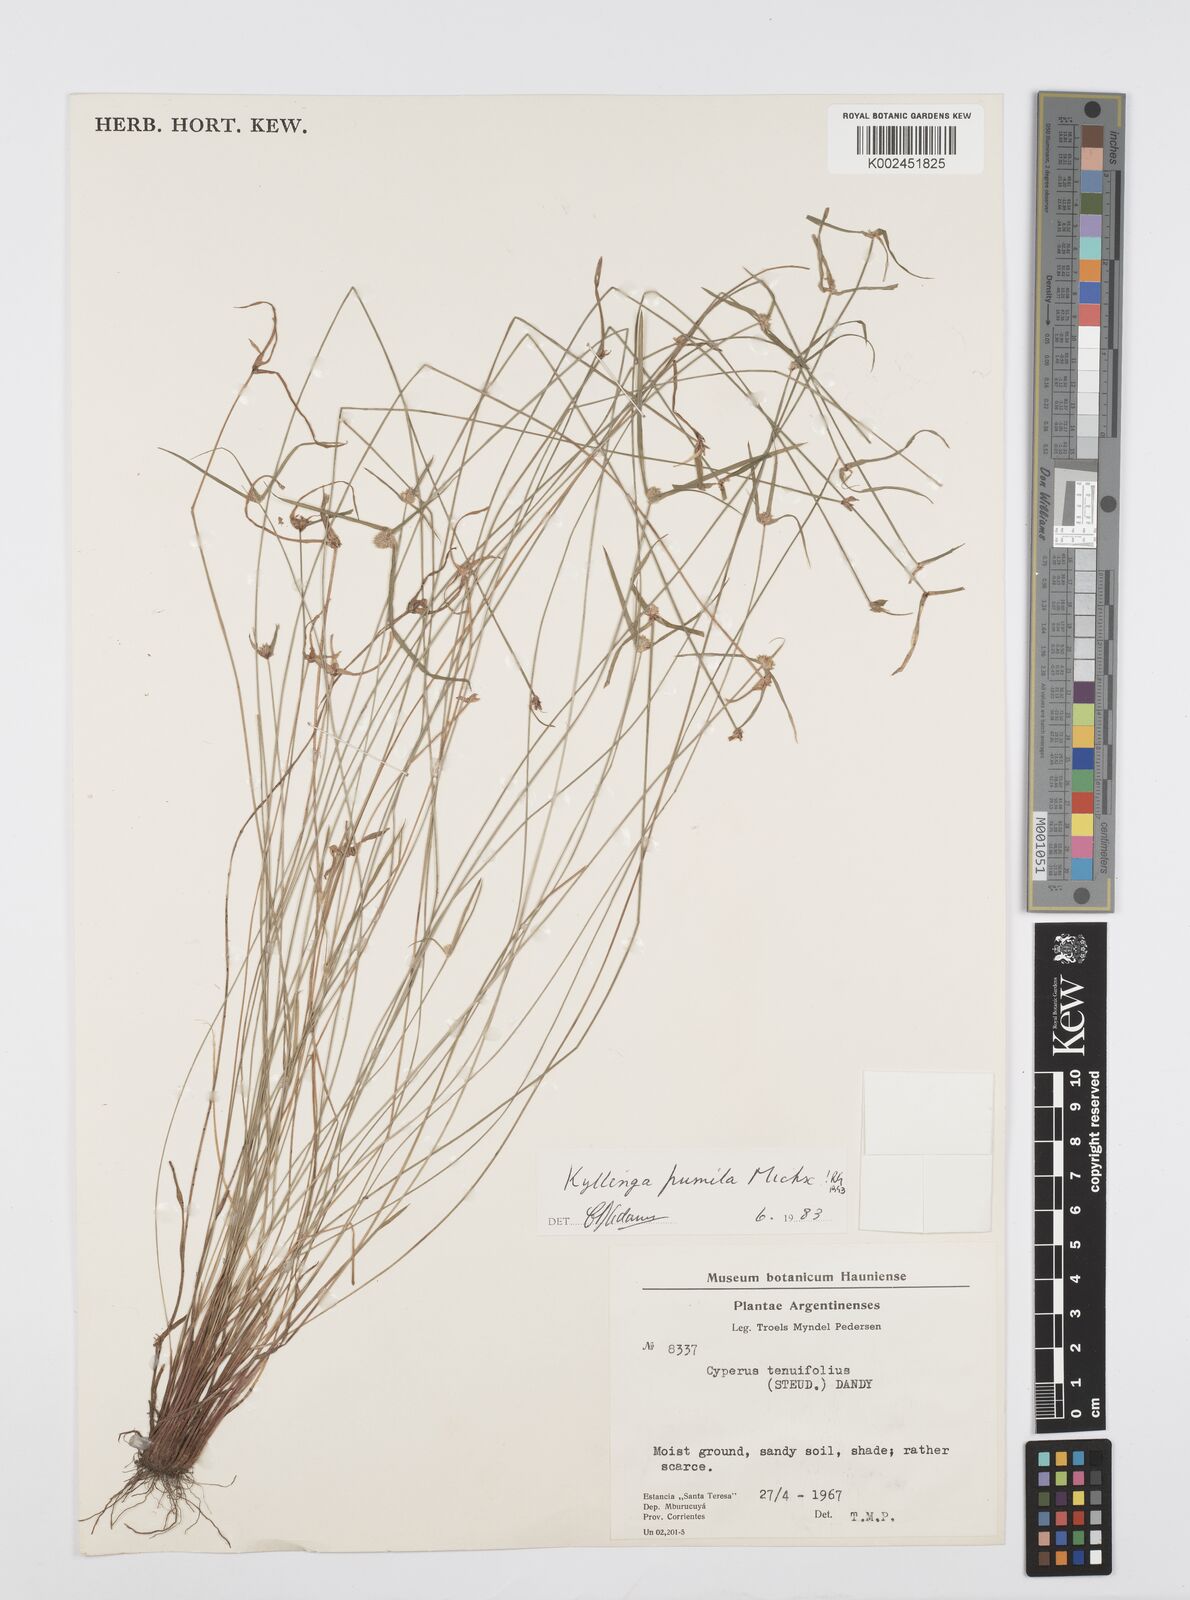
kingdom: Plantae
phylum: Tracheophyta
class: Liliopsida
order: Poales
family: Cyperaceae
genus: Cyperus
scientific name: Cyperus pumilus
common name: Low flatsedge
